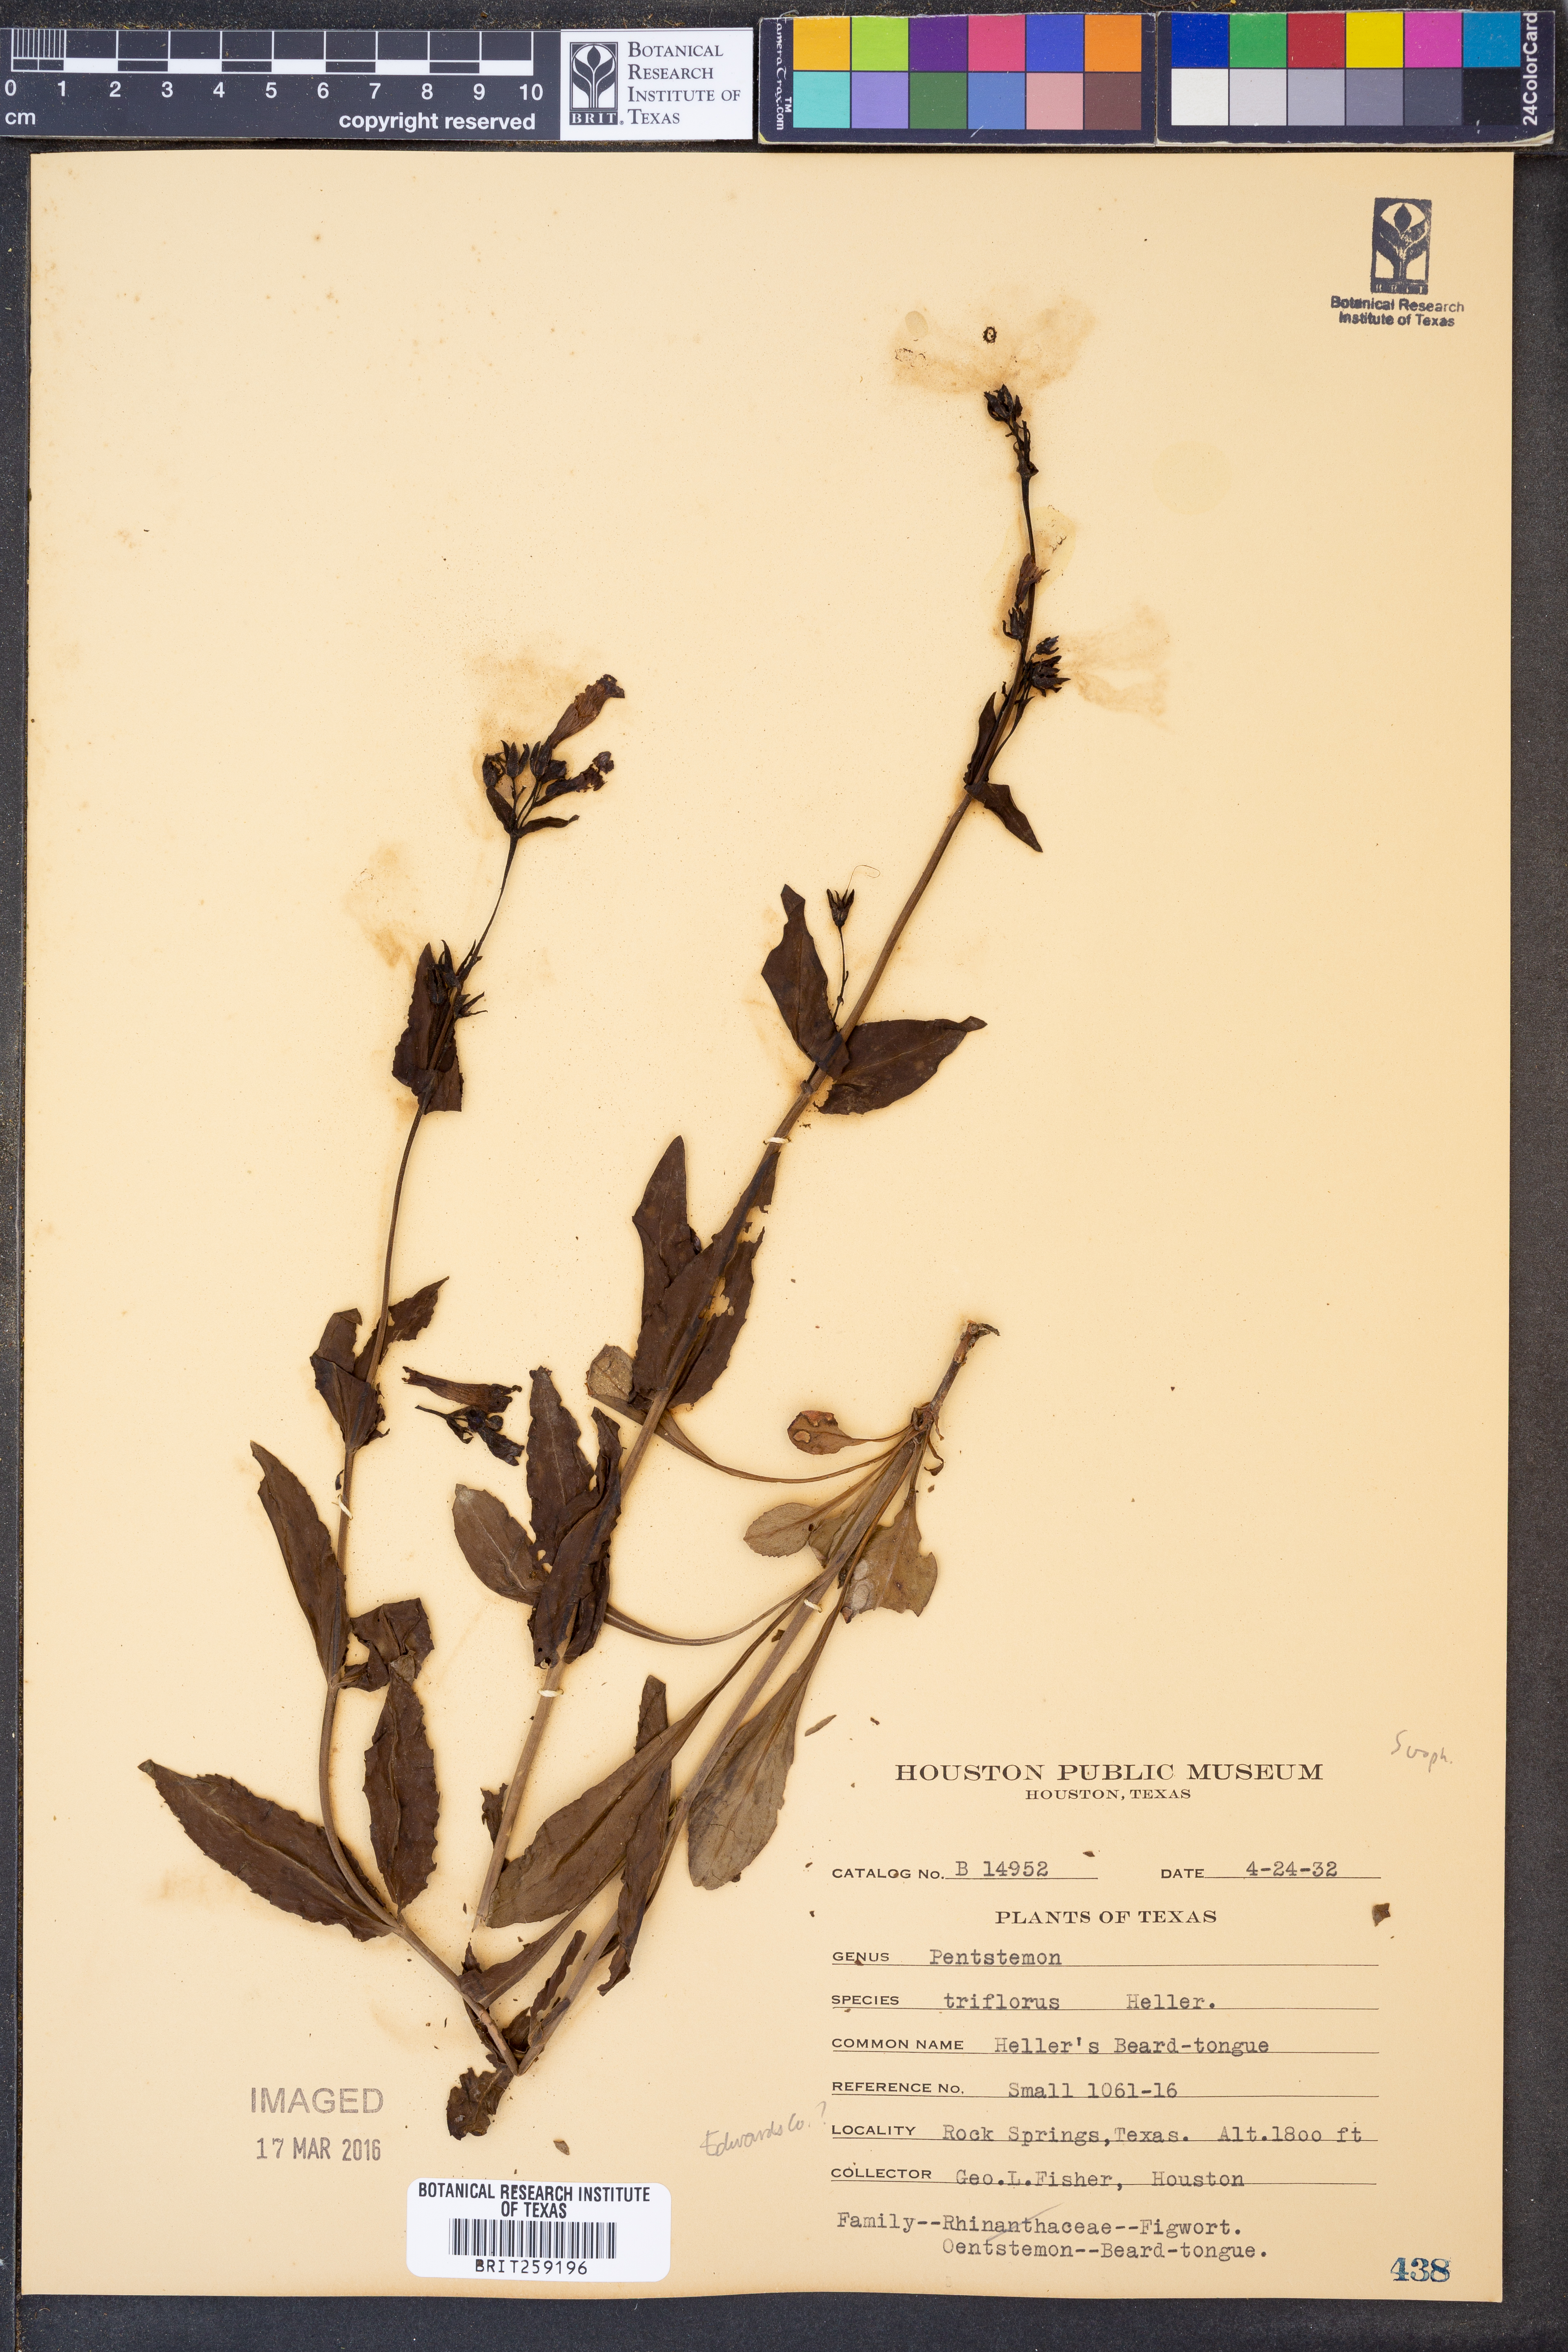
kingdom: Plantae
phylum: Tracheophyta
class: Magnoliopsida
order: Lamiales
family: Plantaginaceae
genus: Penstemon
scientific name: Penstemon triflorus
